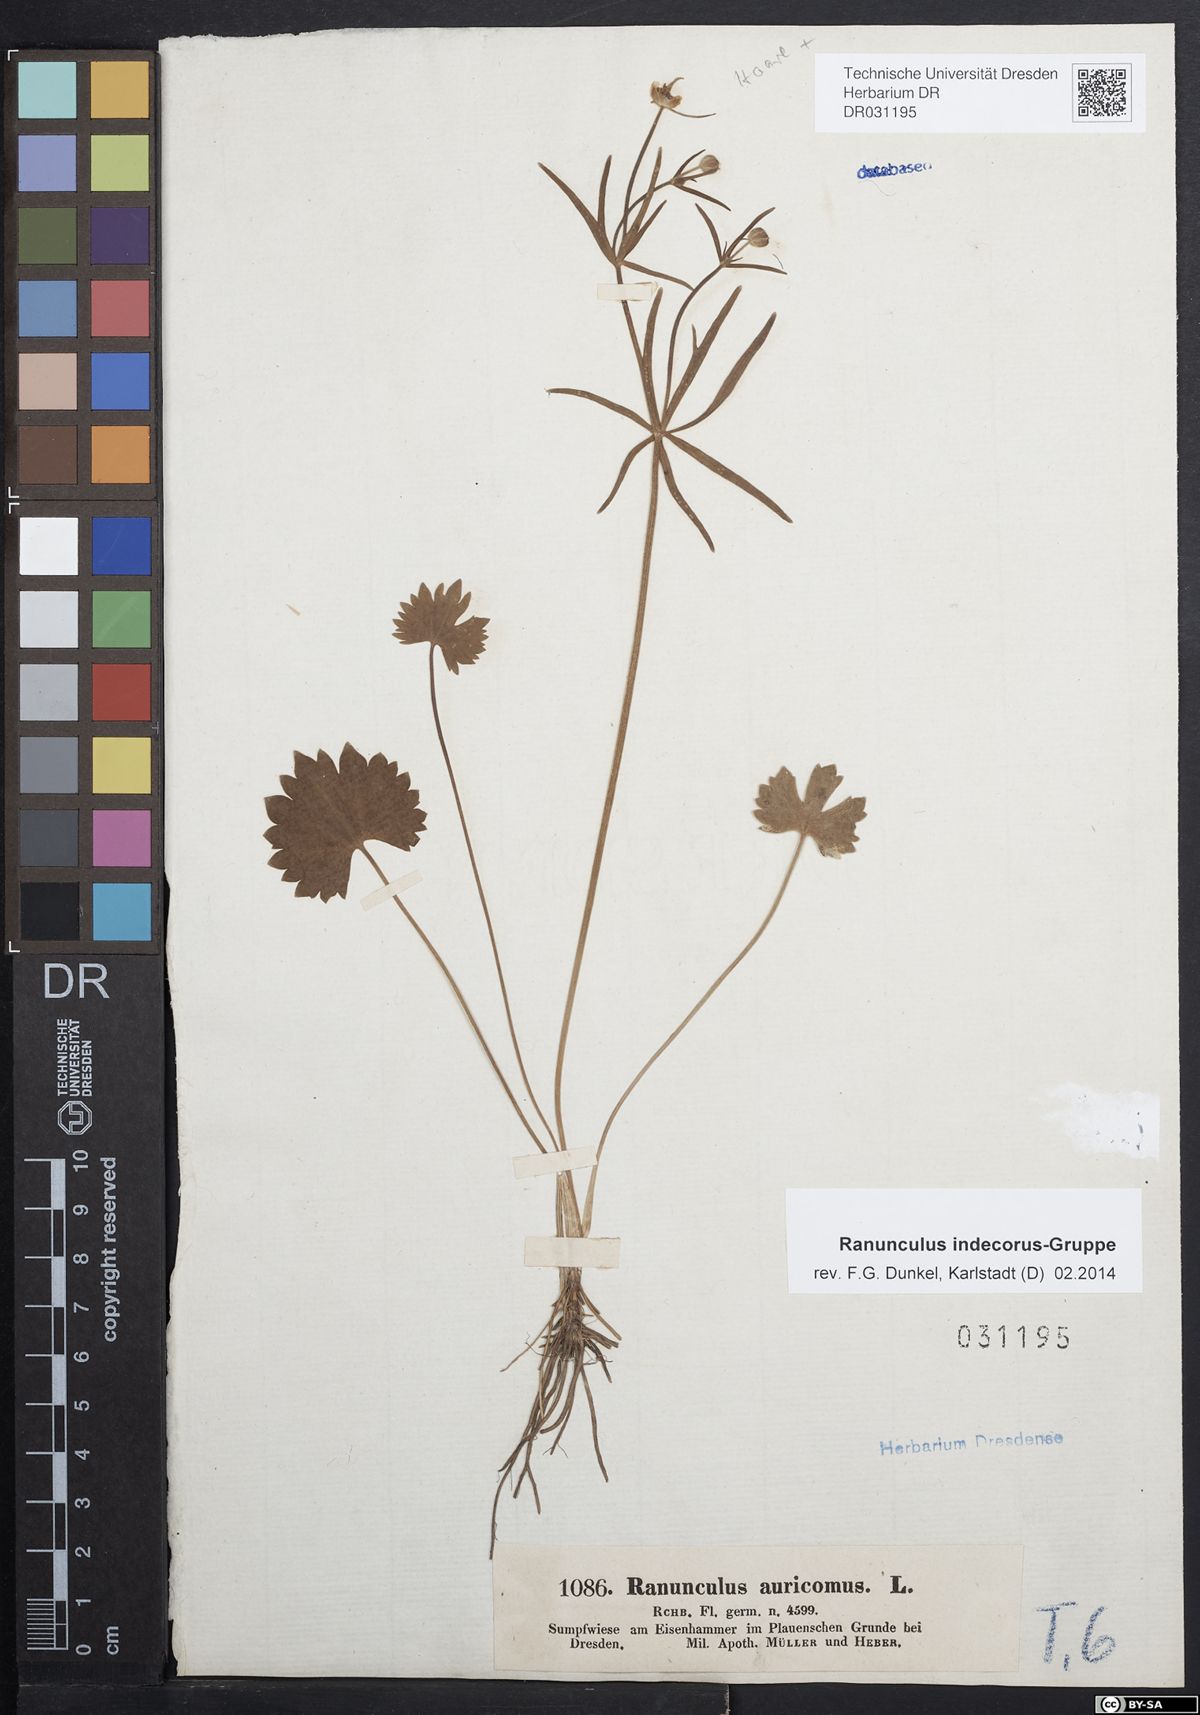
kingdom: Plantae
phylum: Tracheophyta
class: Magnoliopsida
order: Ranunculales
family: Ranunculaceae
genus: Ranunculus
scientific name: Ranunculus indecorus
